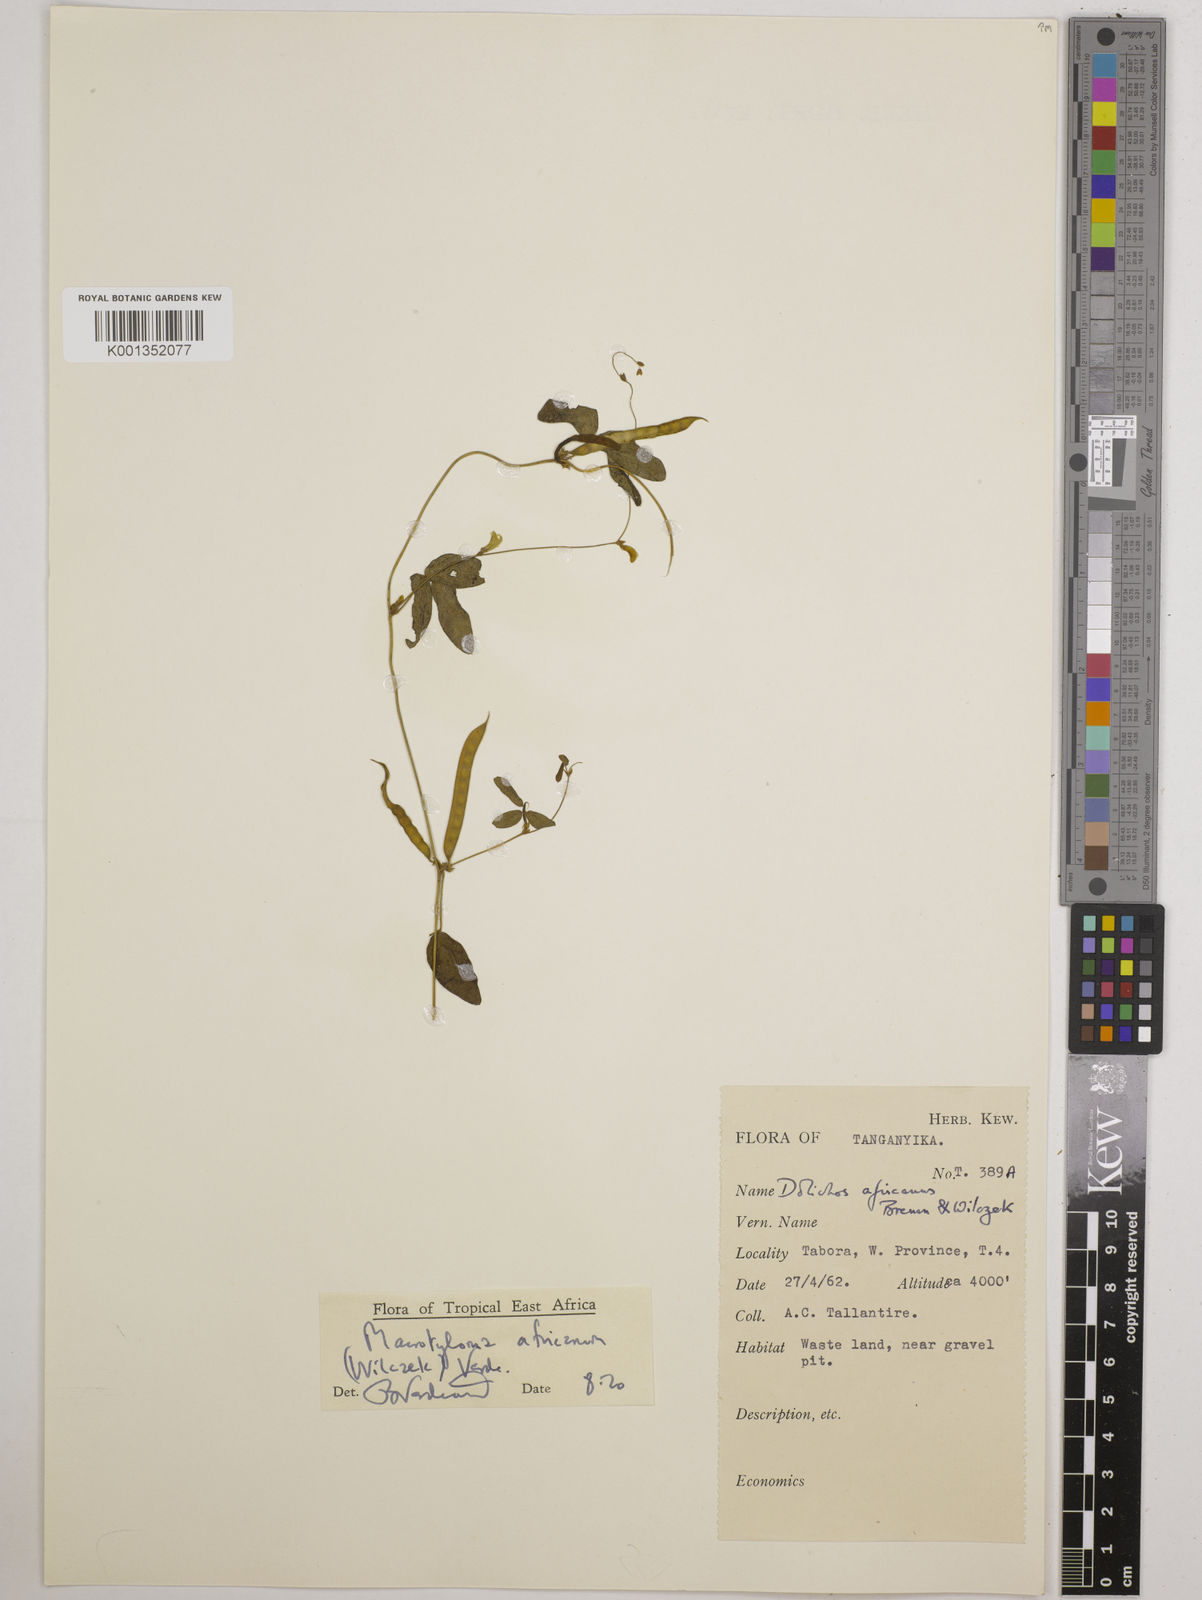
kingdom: Plantae
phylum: Tracheophyta
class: Magnoliopsida
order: Fabales
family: Fabaceae
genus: Macrotyloma
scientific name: Macrotyloma africanum
